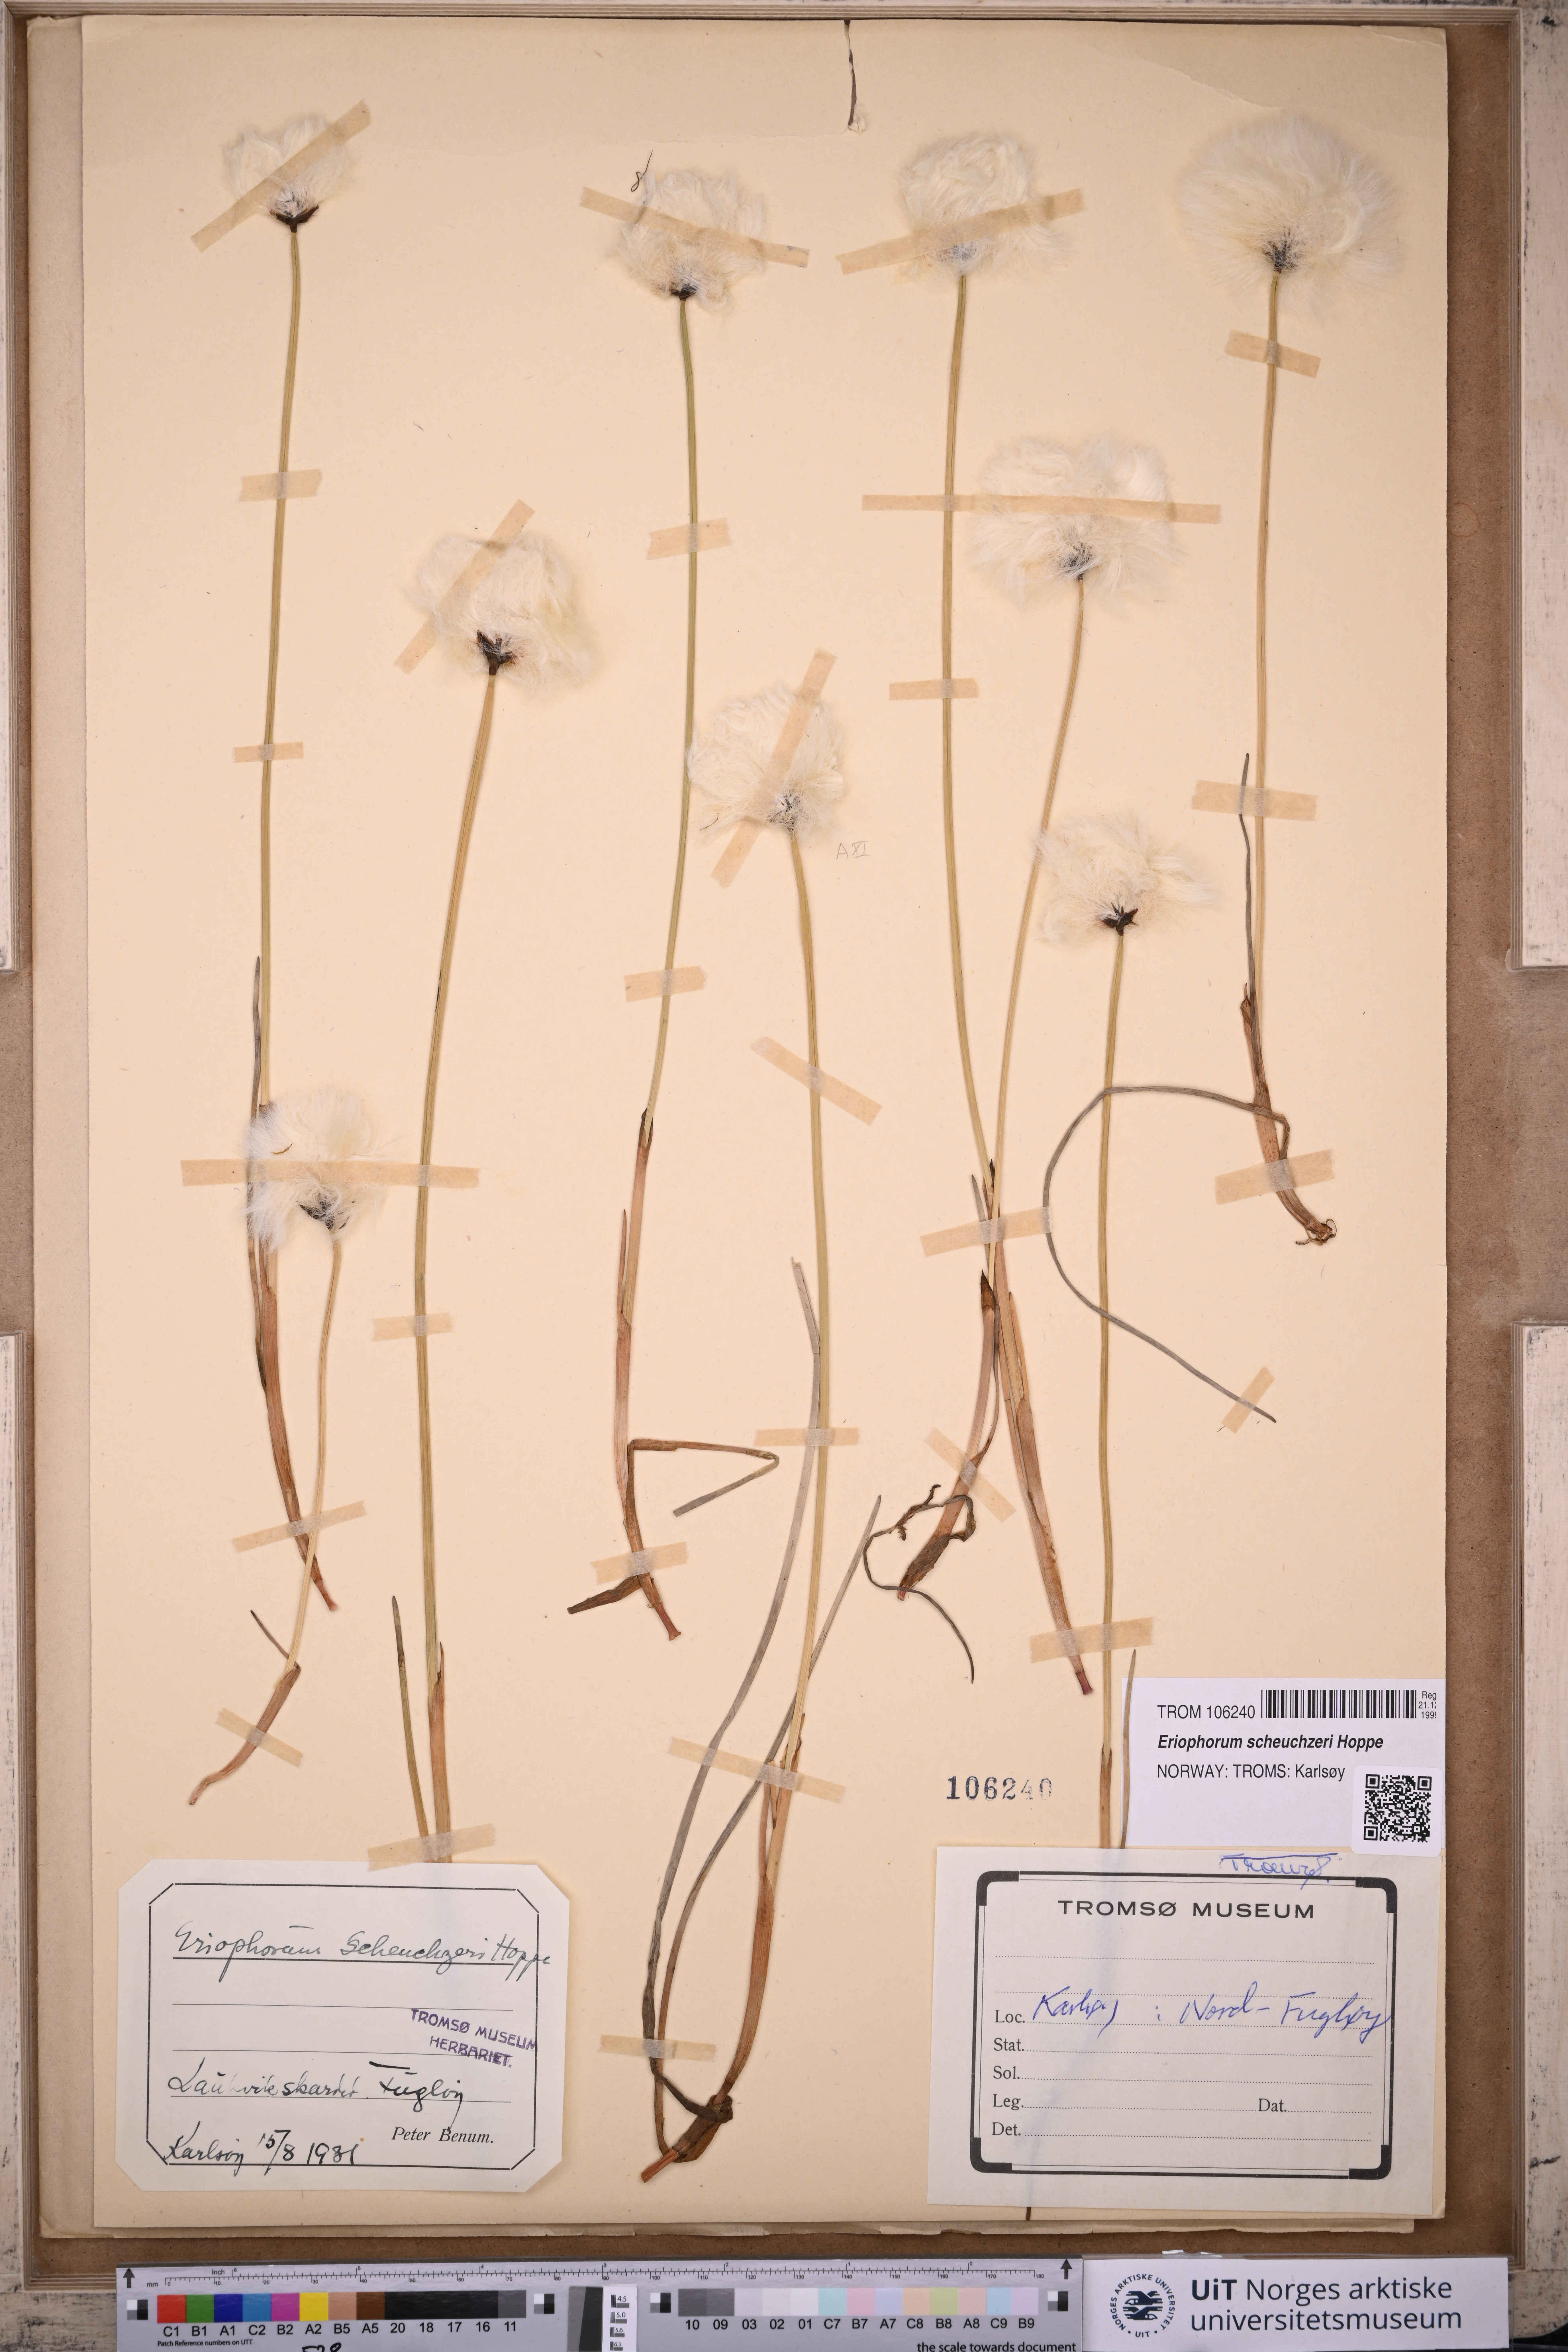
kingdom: Plantae
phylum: Tracheophyta
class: Liliopsida
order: Poales
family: Cyperaceae
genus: Eriophorum
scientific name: Eriophorum scheuchzeri
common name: Scheuchzer's cottongrass
